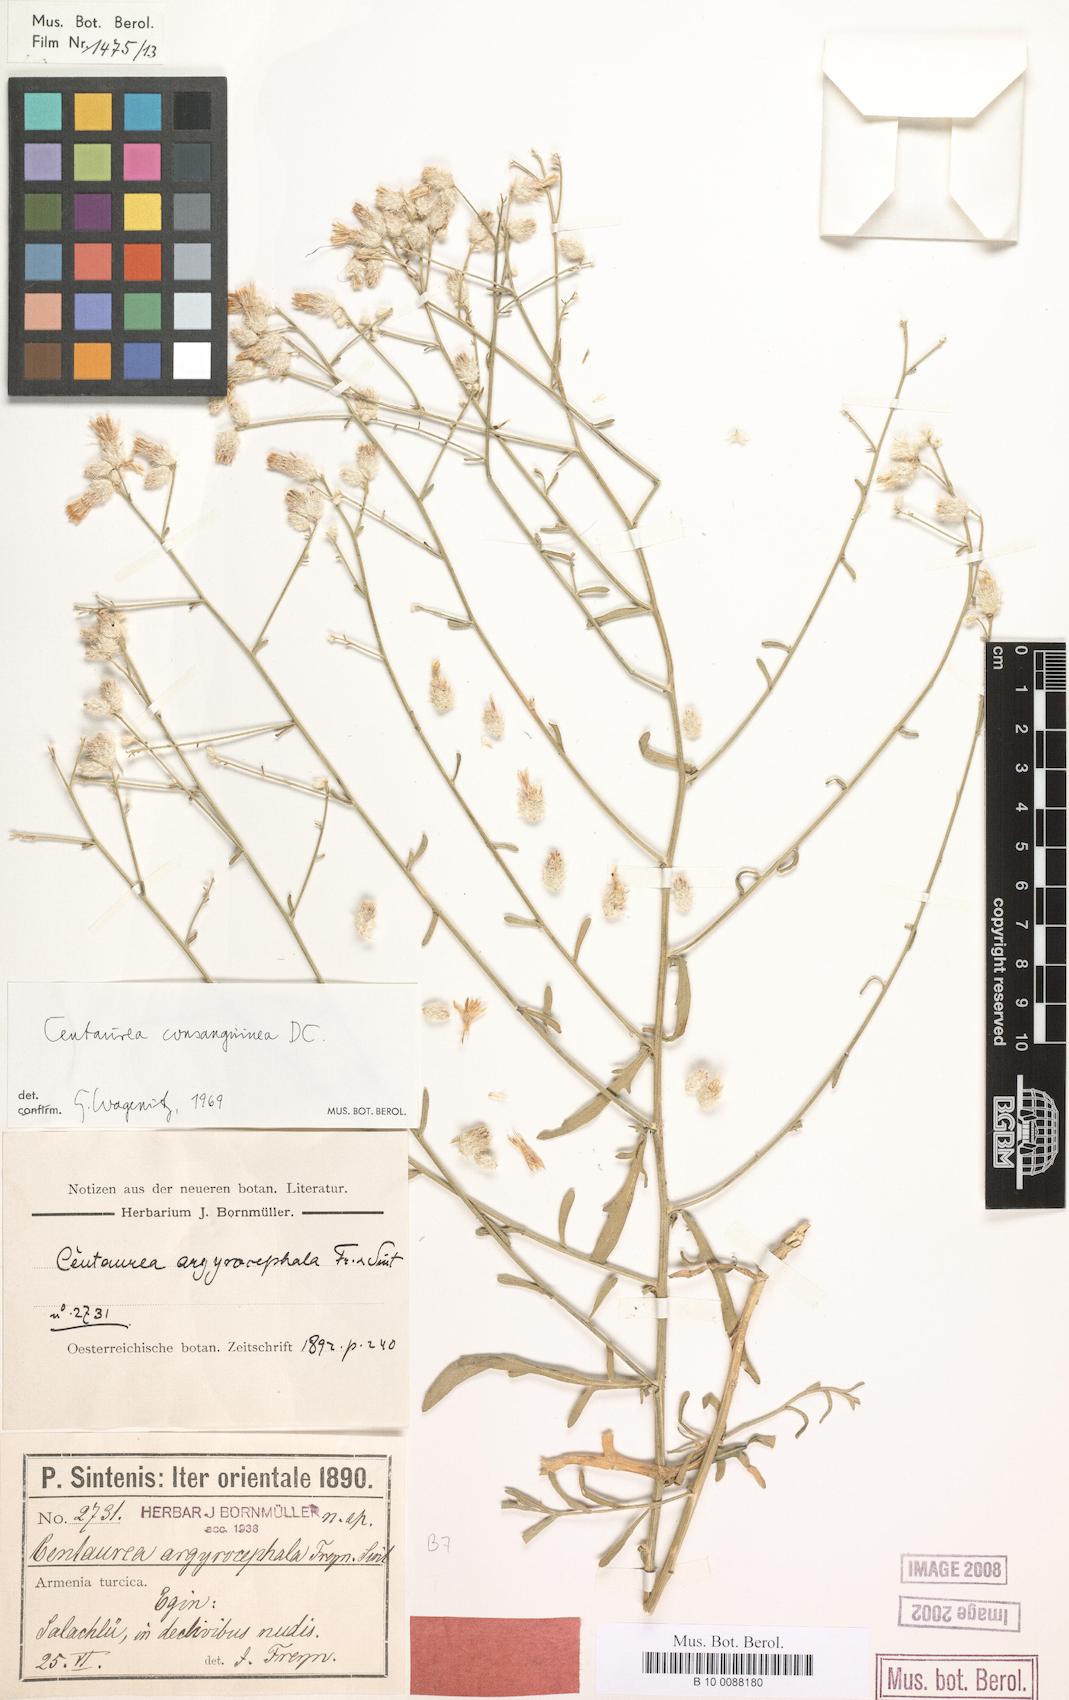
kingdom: Plantae
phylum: Tracheophyta
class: Magnoliopsida
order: Asterales
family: Asteraceae
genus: Centaurea
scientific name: Centaurea consanguinea
